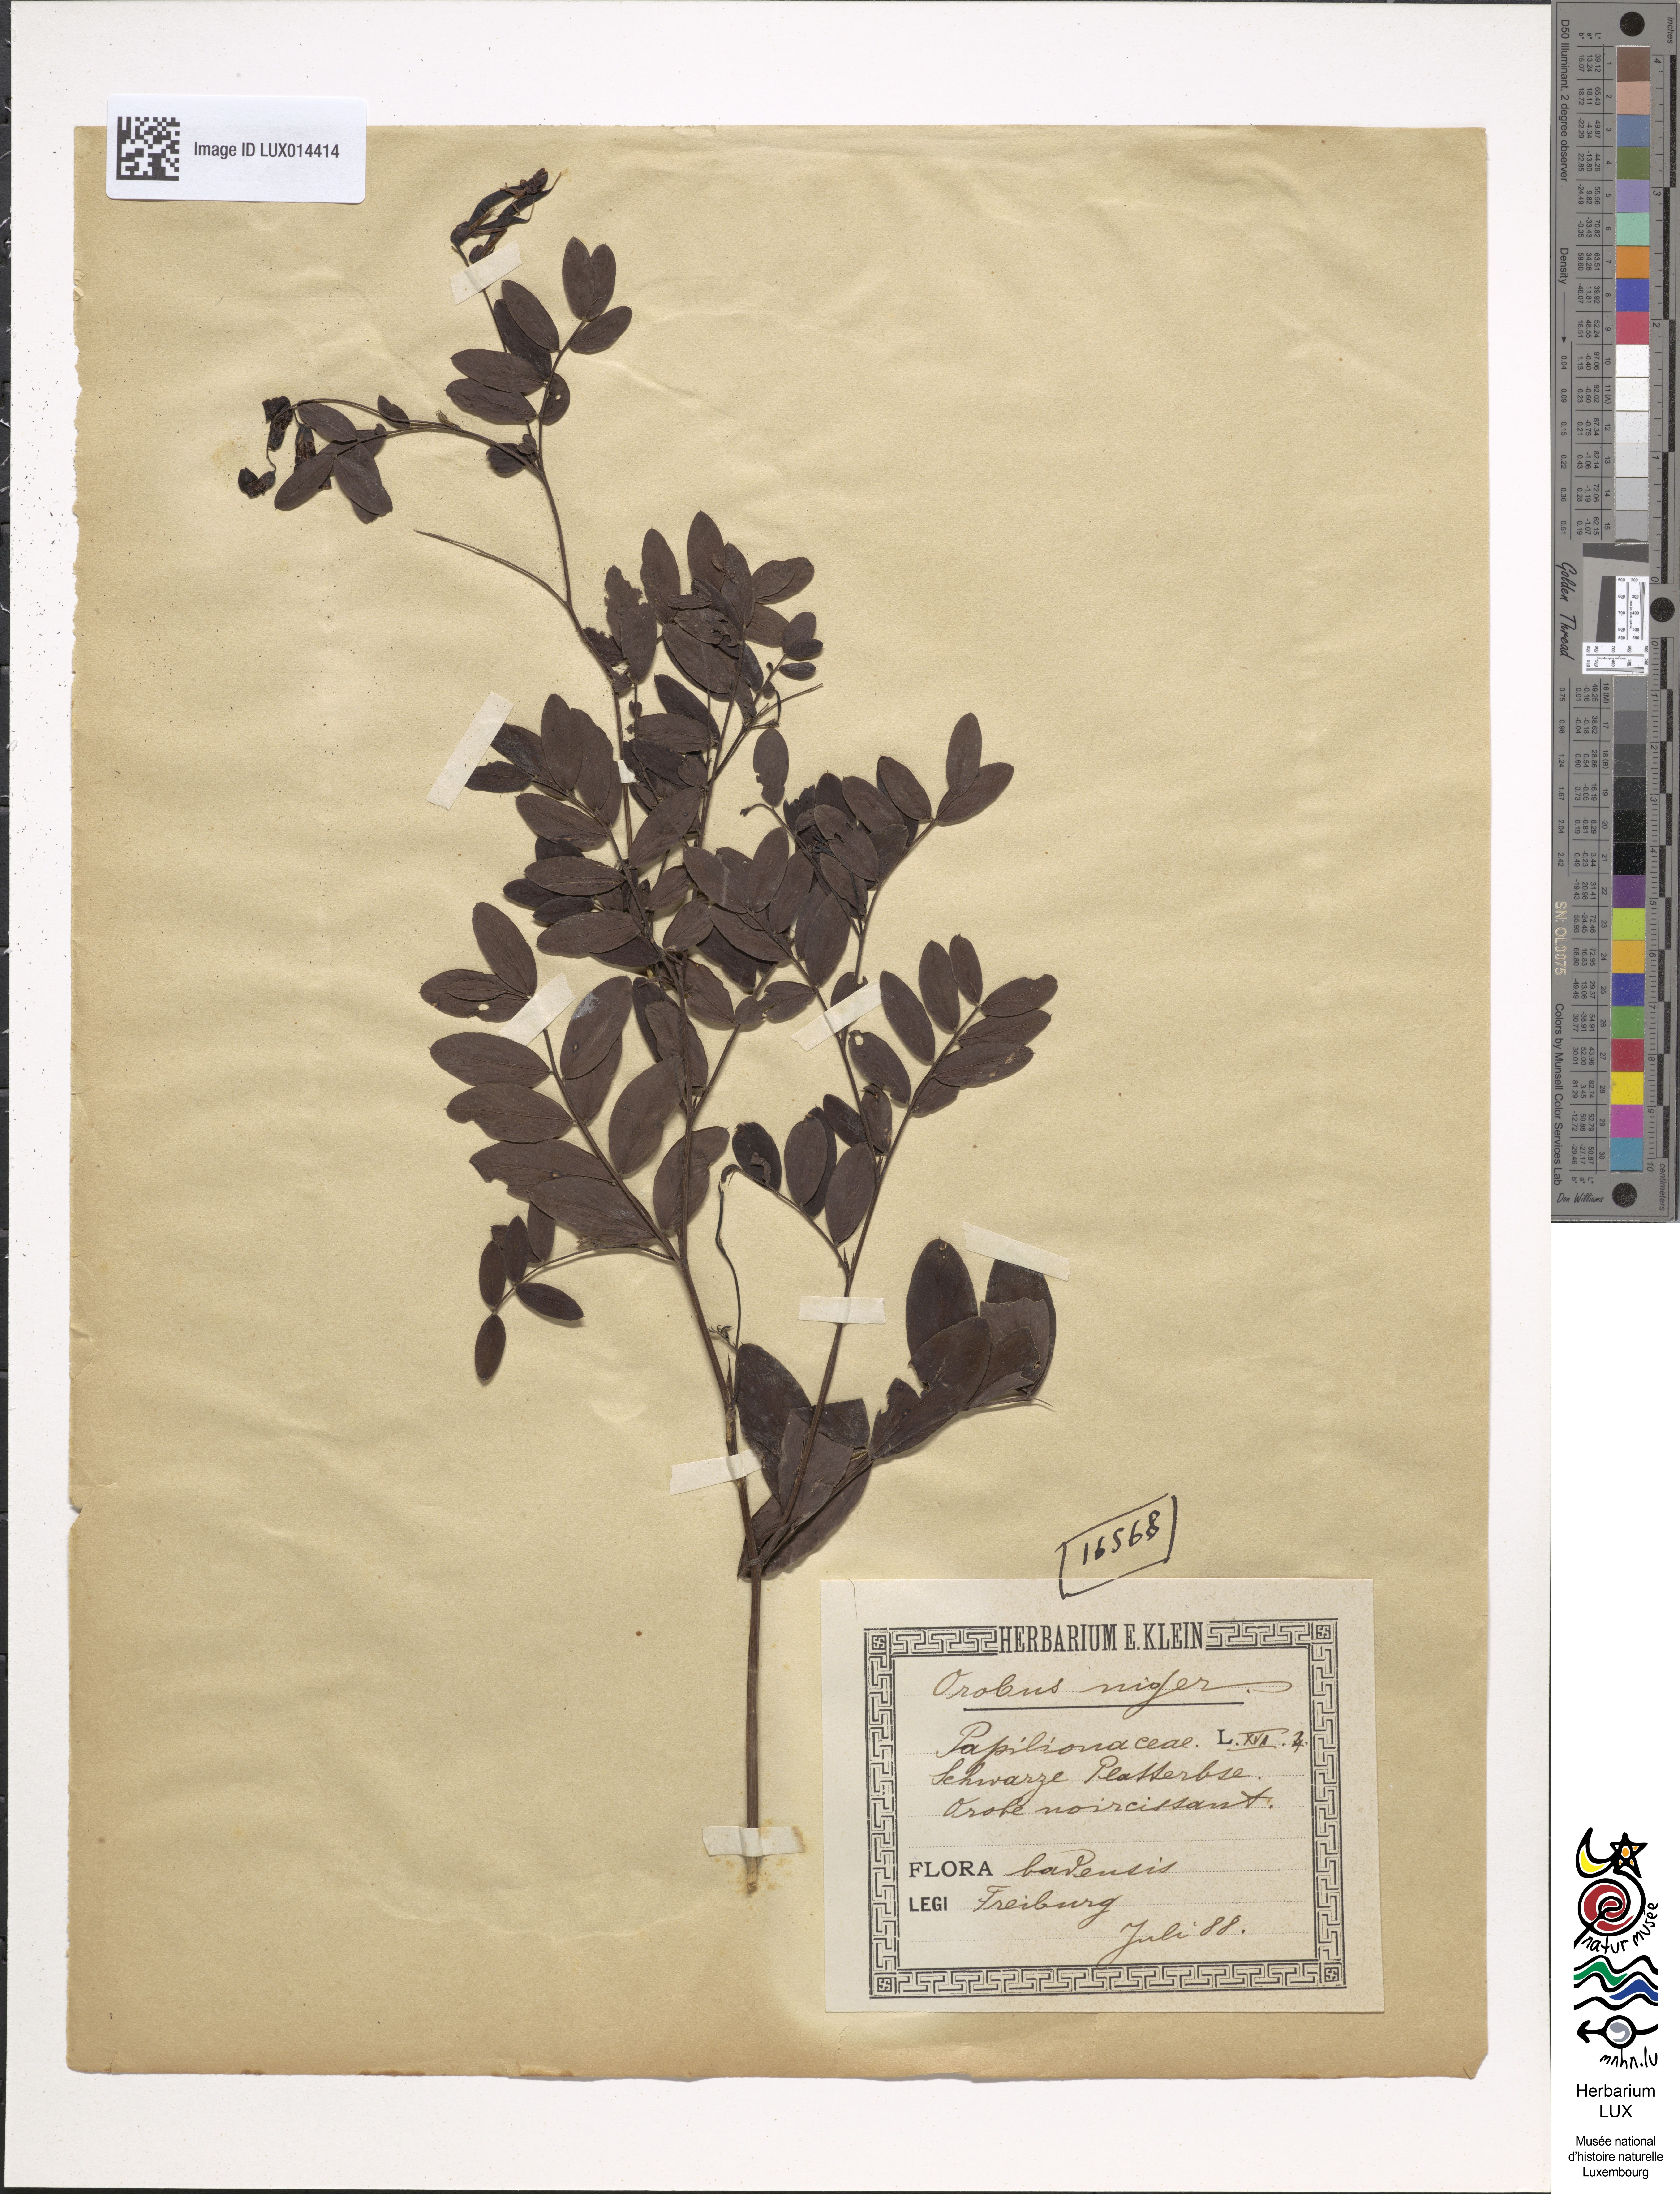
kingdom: Plantae
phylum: Tracheophyta
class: Magnoliopsida
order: Fabales
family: Fabaceae
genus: Lathyrus
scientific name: Lathyrus niger
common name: Black pea
